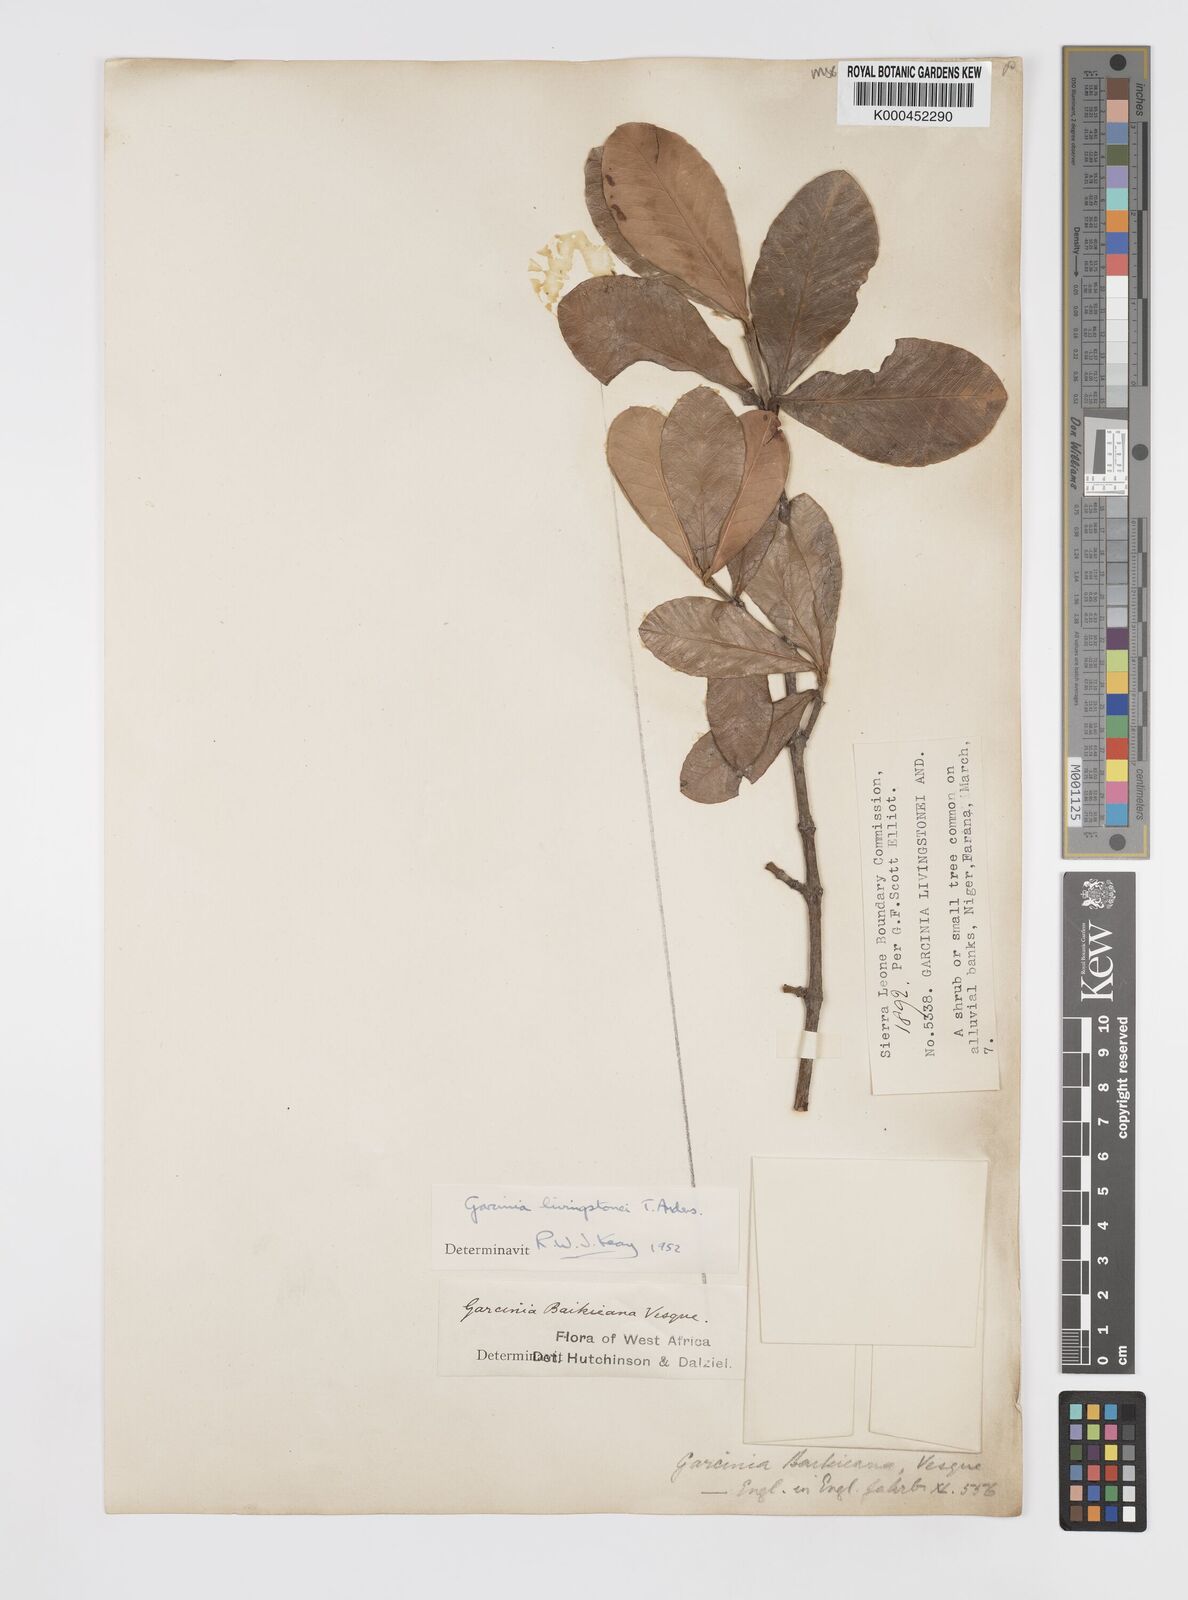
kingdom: Plantae
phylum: Tracheophyta
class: Magnoliopsida
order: Malpighiales
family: Clusiaceae
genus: Garcinia
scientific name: Garcinia livingstonei
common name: African mangosteen
